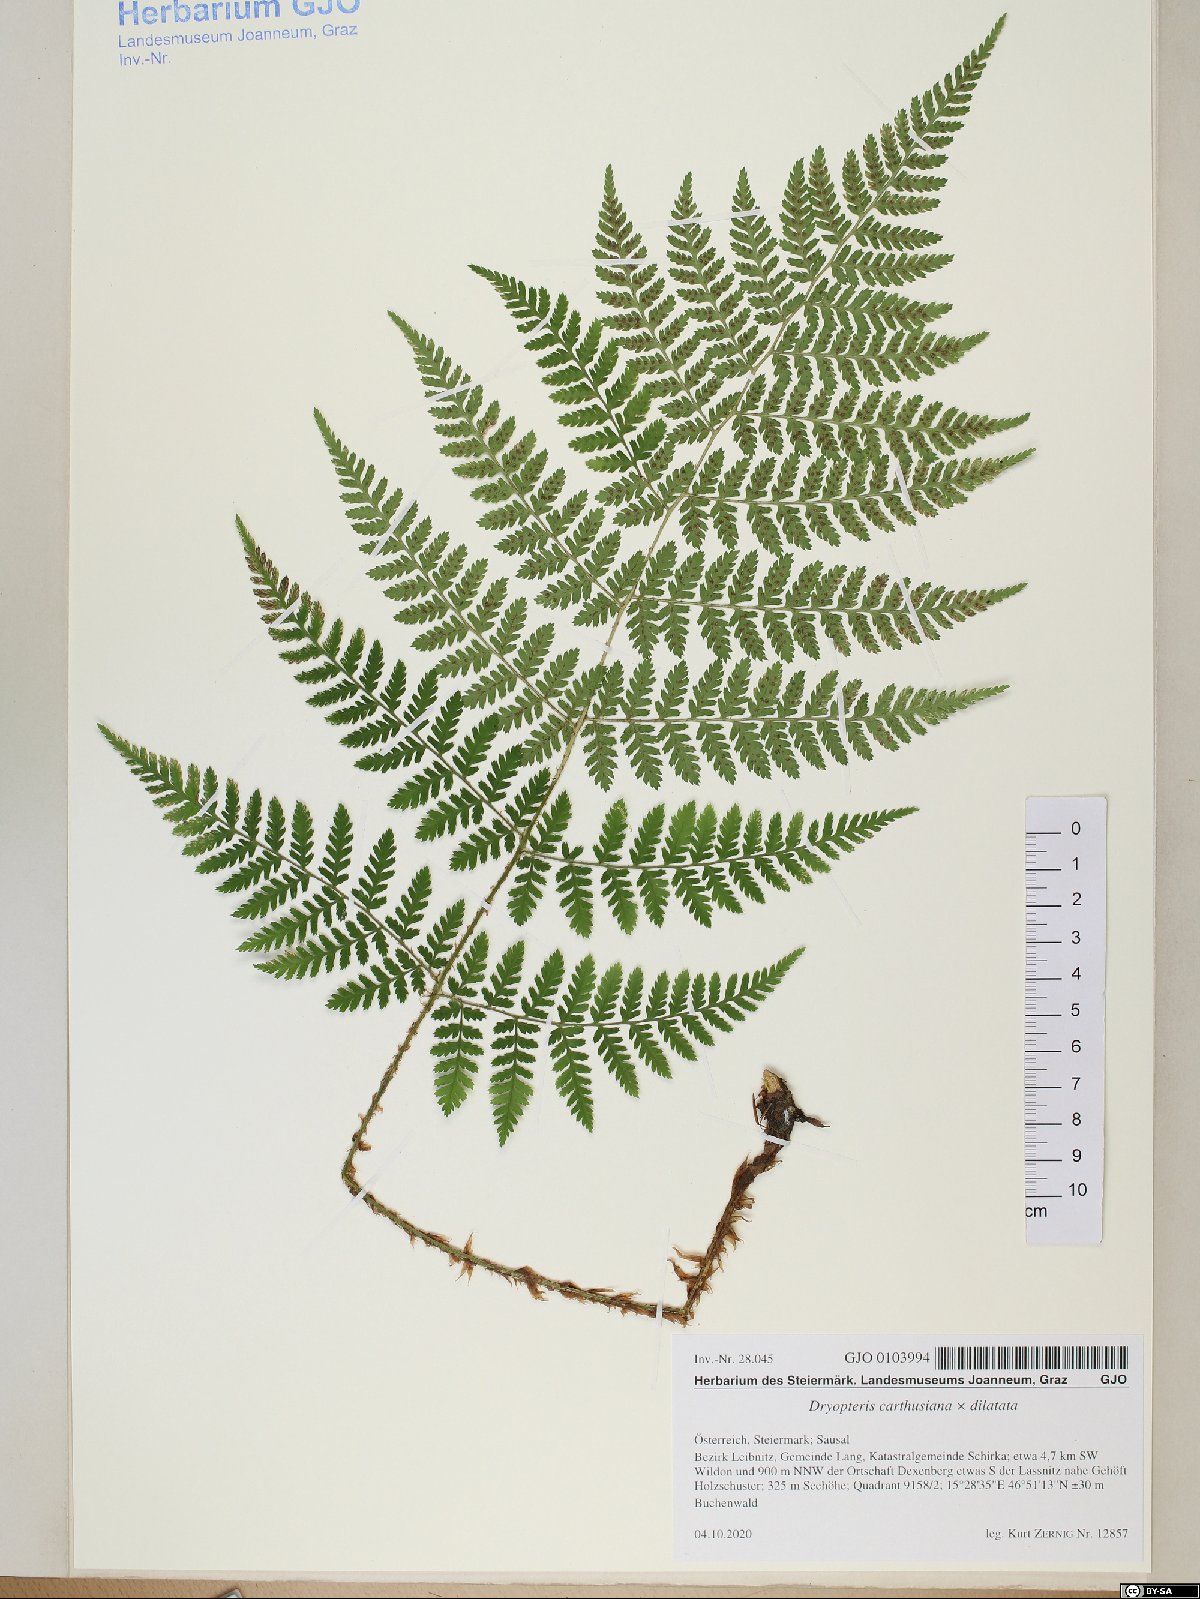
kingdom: Plantae
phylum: Tracheophyta
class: Polypodiopsida
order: Polypodiales
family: Dryopteridaceae
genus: Dryopteris
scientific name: Dryopteris deweveri
